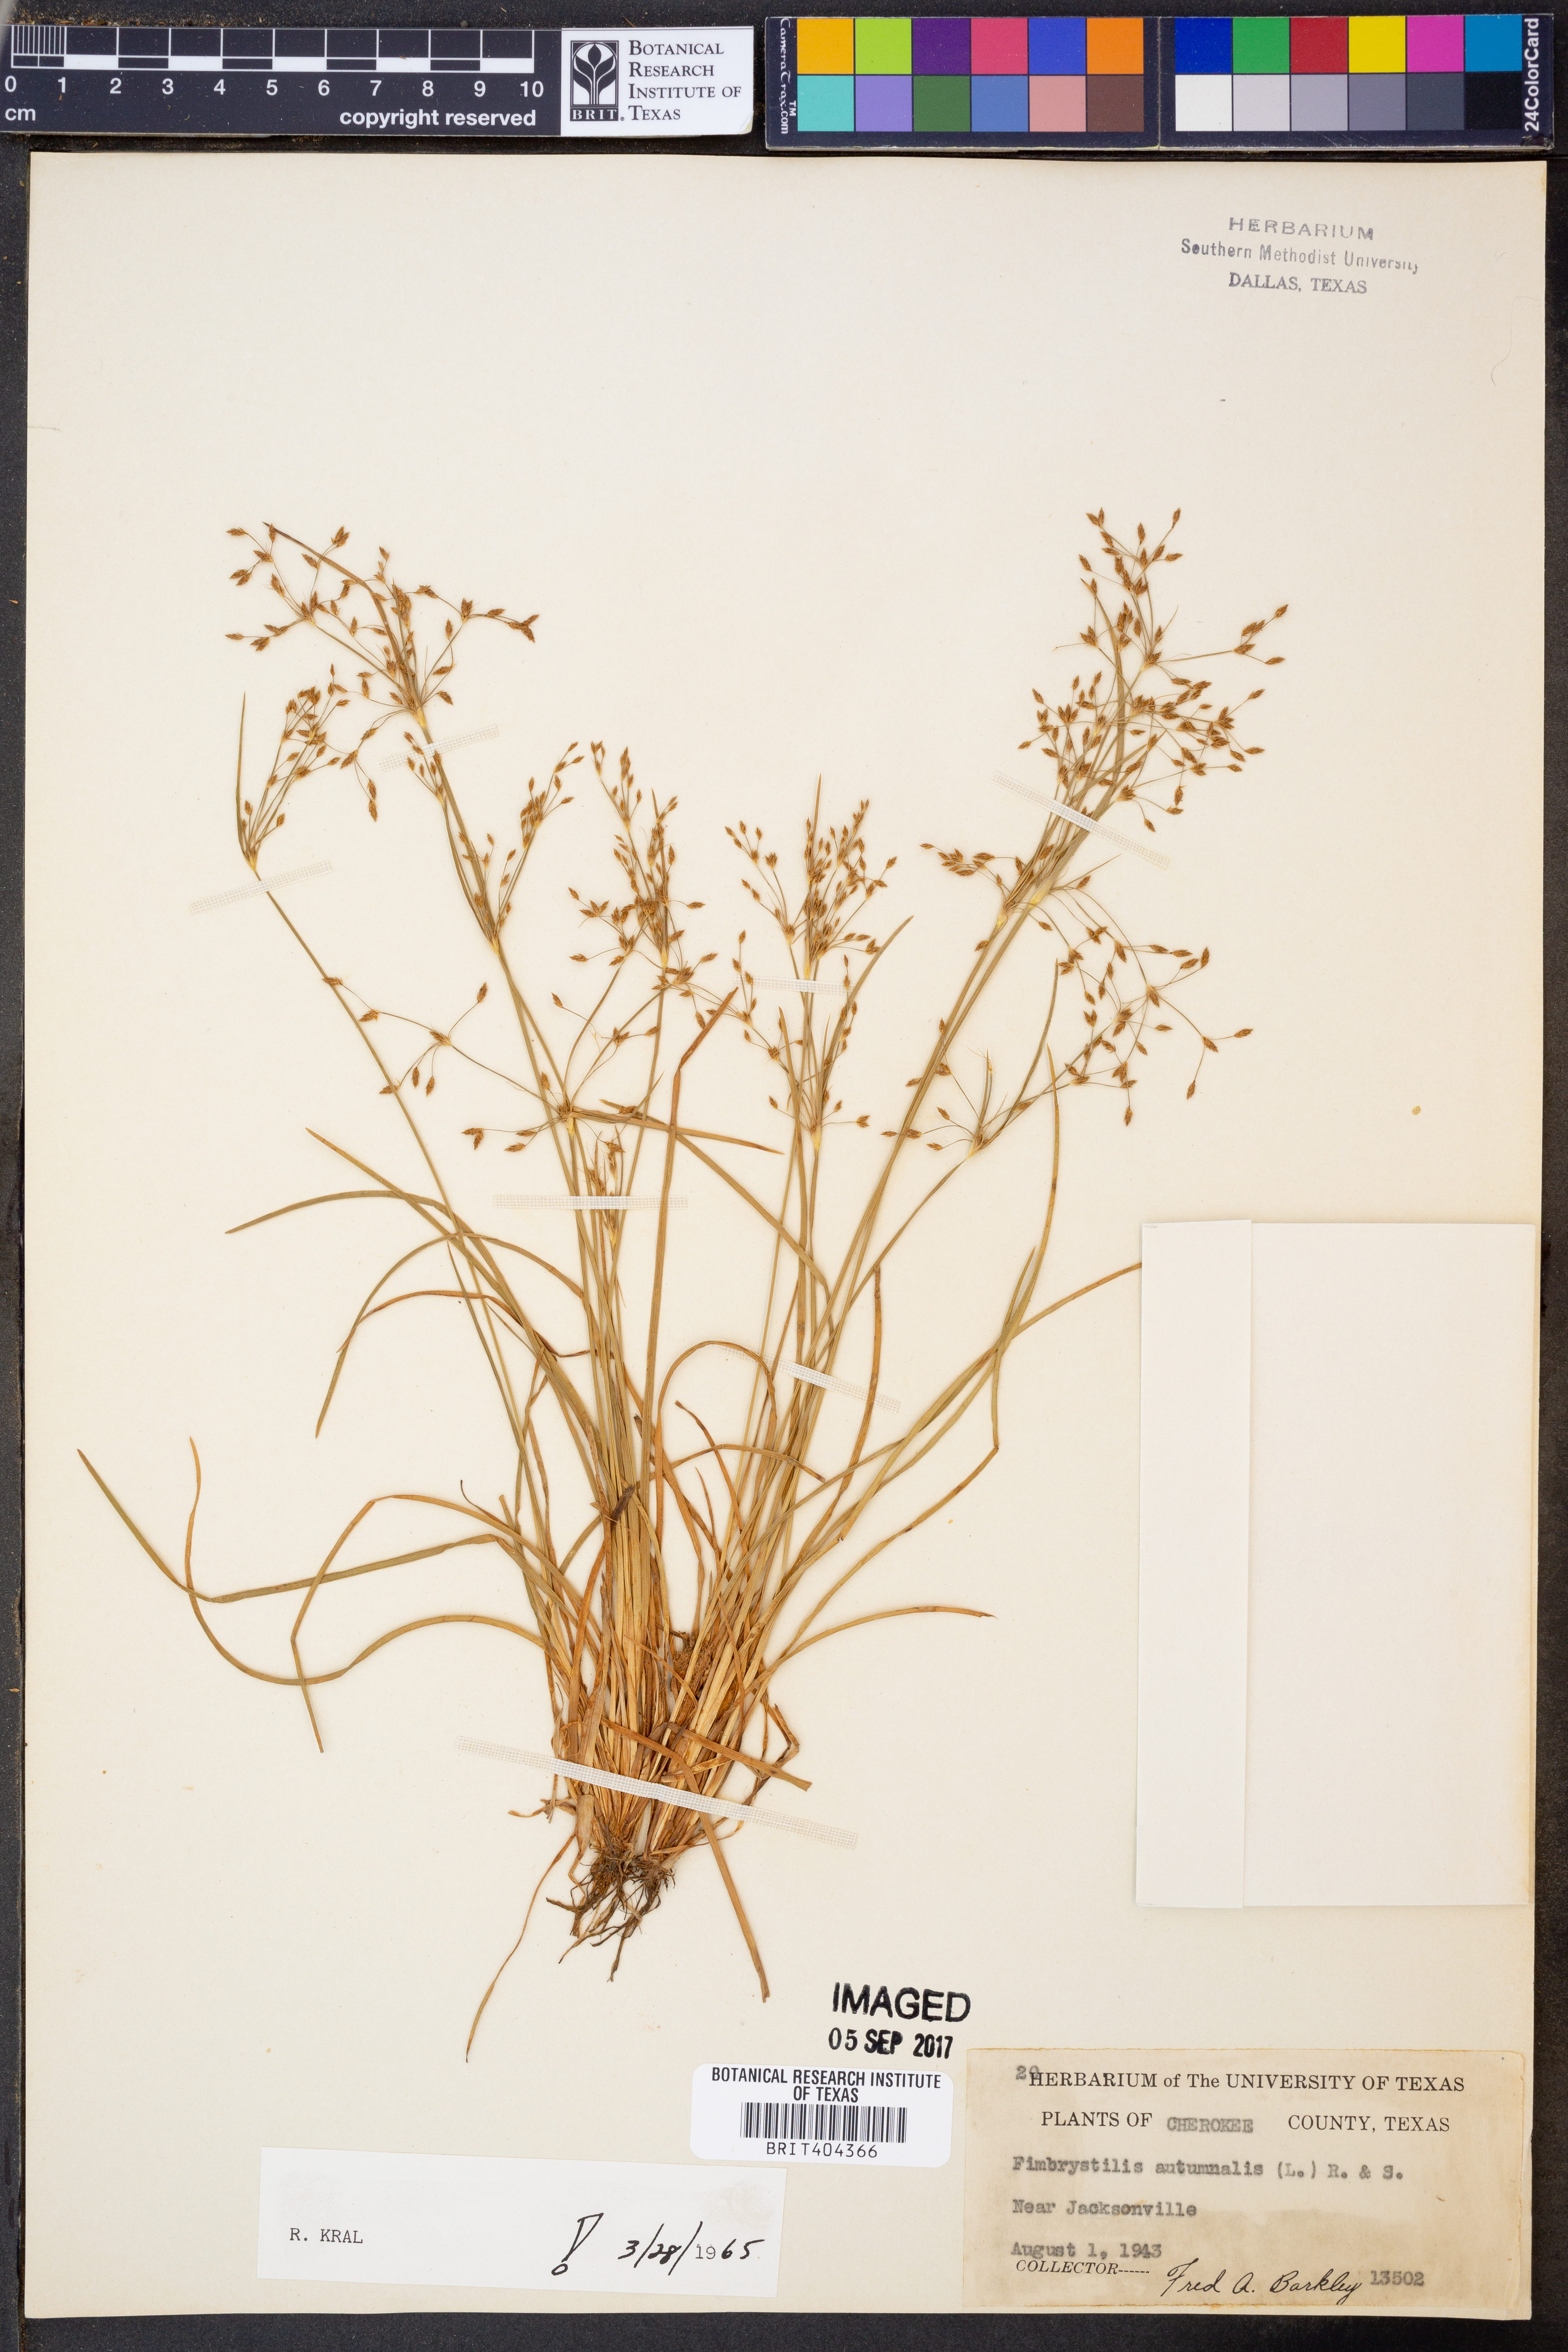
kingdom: Plantae
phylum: Tracheophyta
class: Liliopsida
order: Poales
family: Cyperaceae
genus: Fimbristylis
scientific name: Fimbristylis autumnalis
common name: Slender fimbristylis
